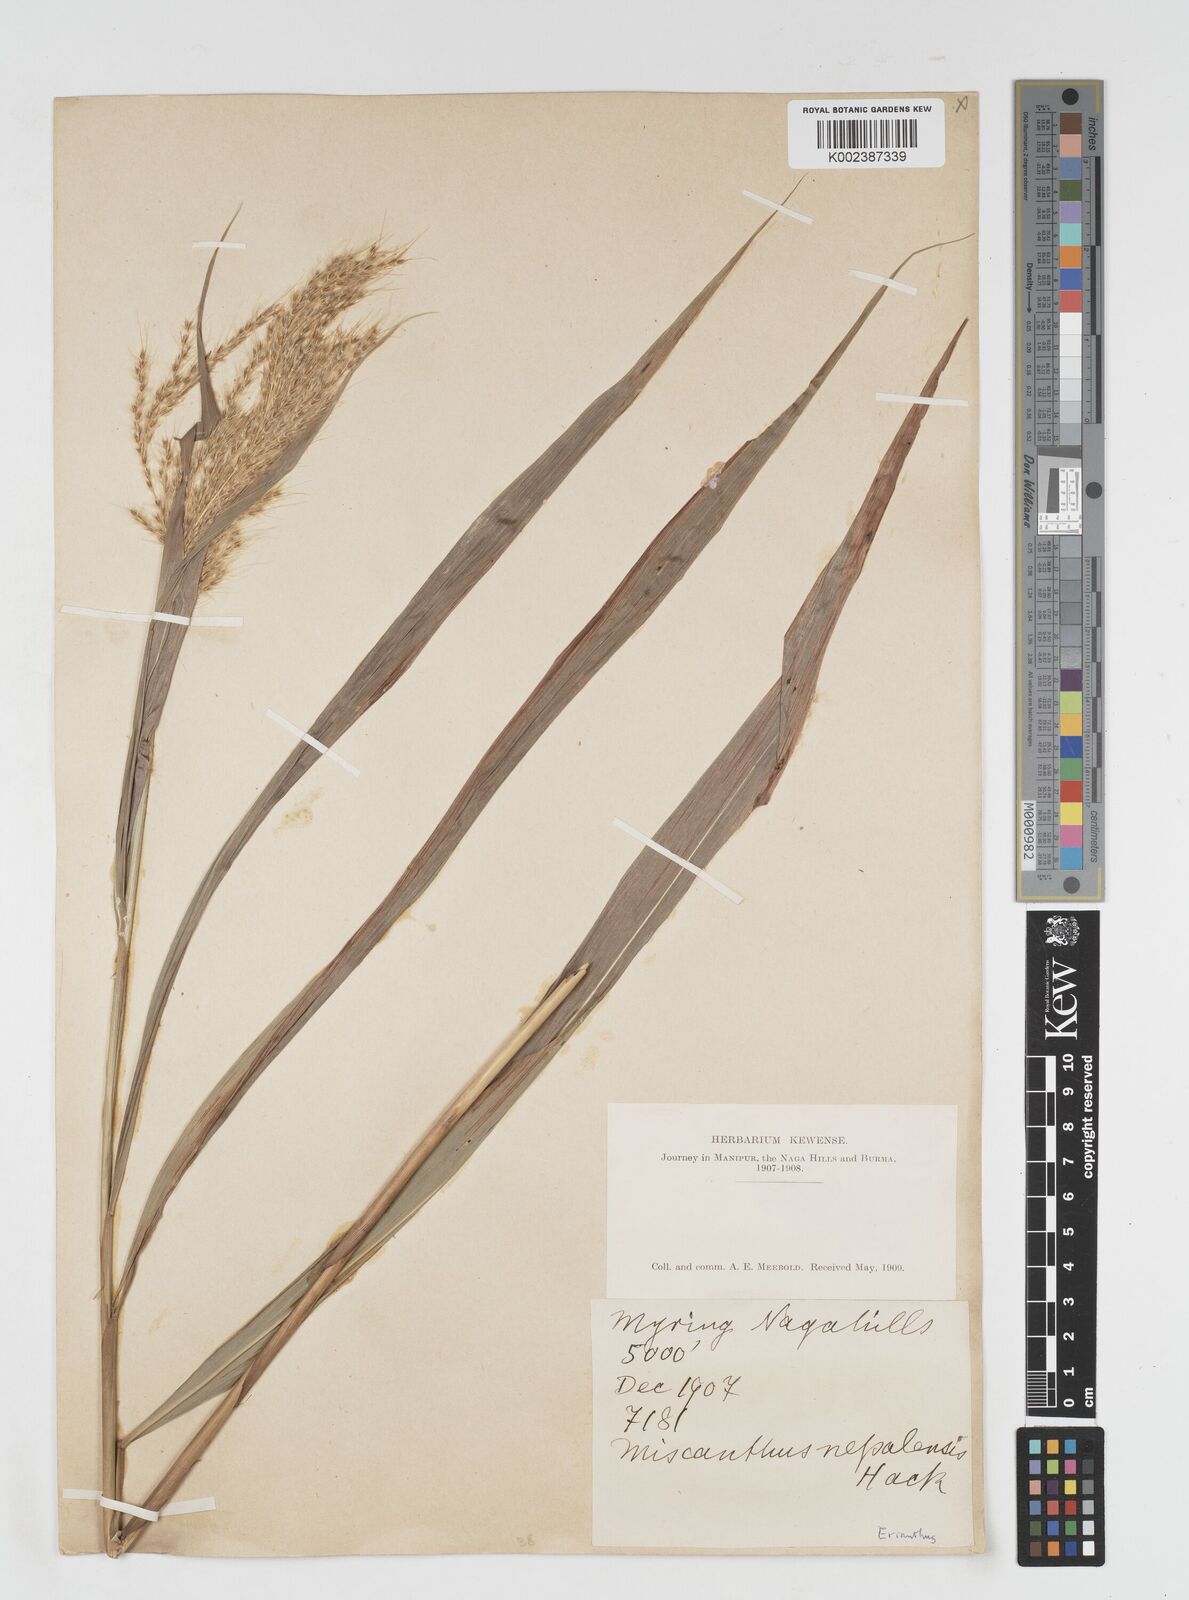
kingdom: Plantae
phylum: Tracheophyta
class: Liliopsida
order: Poales
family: Poaceae
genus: Miscanthus
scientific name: Miscanthus nepalensis
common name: Nepal silver grass
